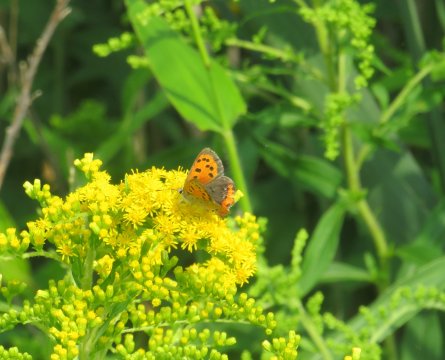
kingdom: Animalia
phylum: Arthropoda
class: Insecta
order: Lepidoptera
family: Lycaenidae
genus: Lycaena
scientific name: Lycaena phlaeas
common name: American Copper
